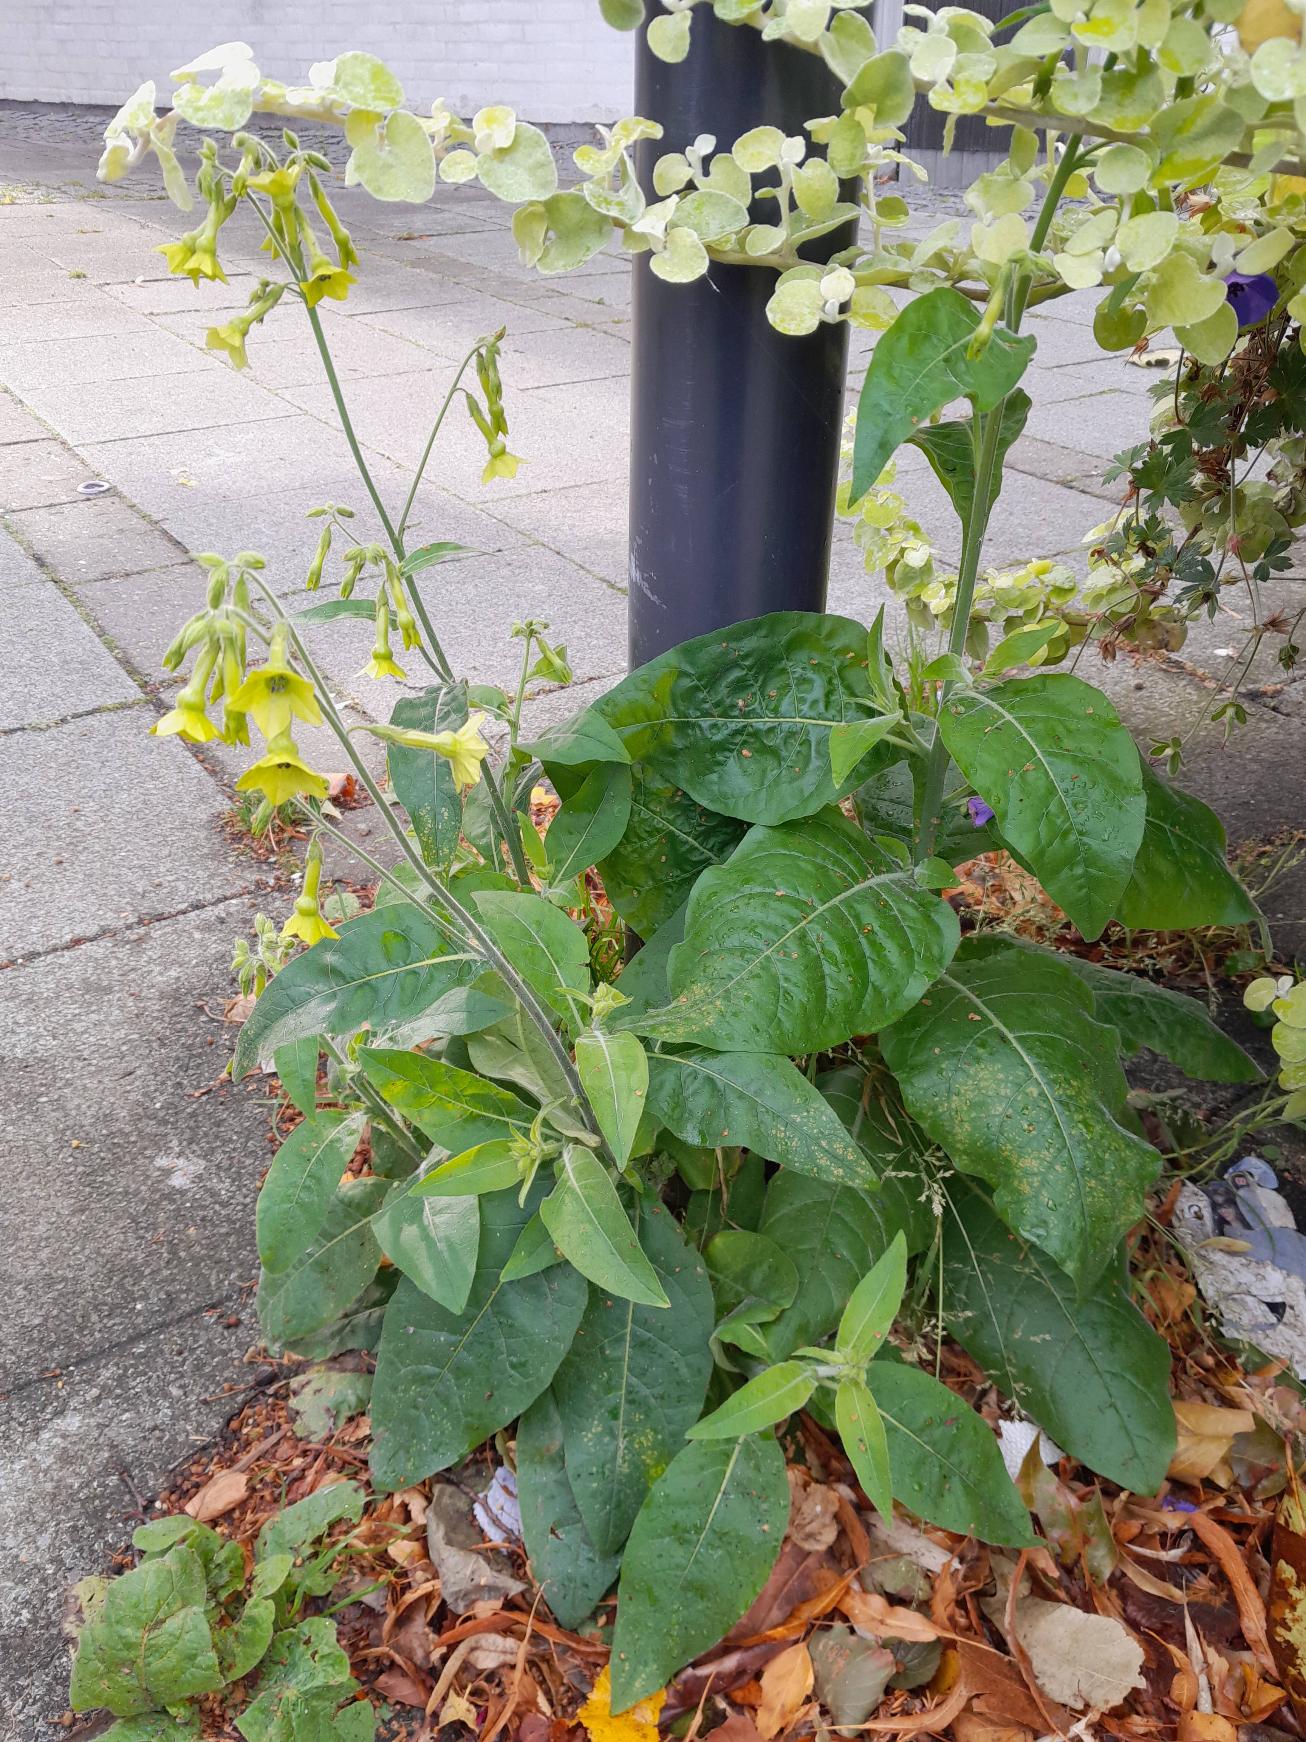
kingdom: Plantae
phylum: Tracheophyta
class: Magnoliopsida
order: Solanales
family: Solanaceae
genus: Nicotiana
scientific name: Nicotiana langsdorffii
